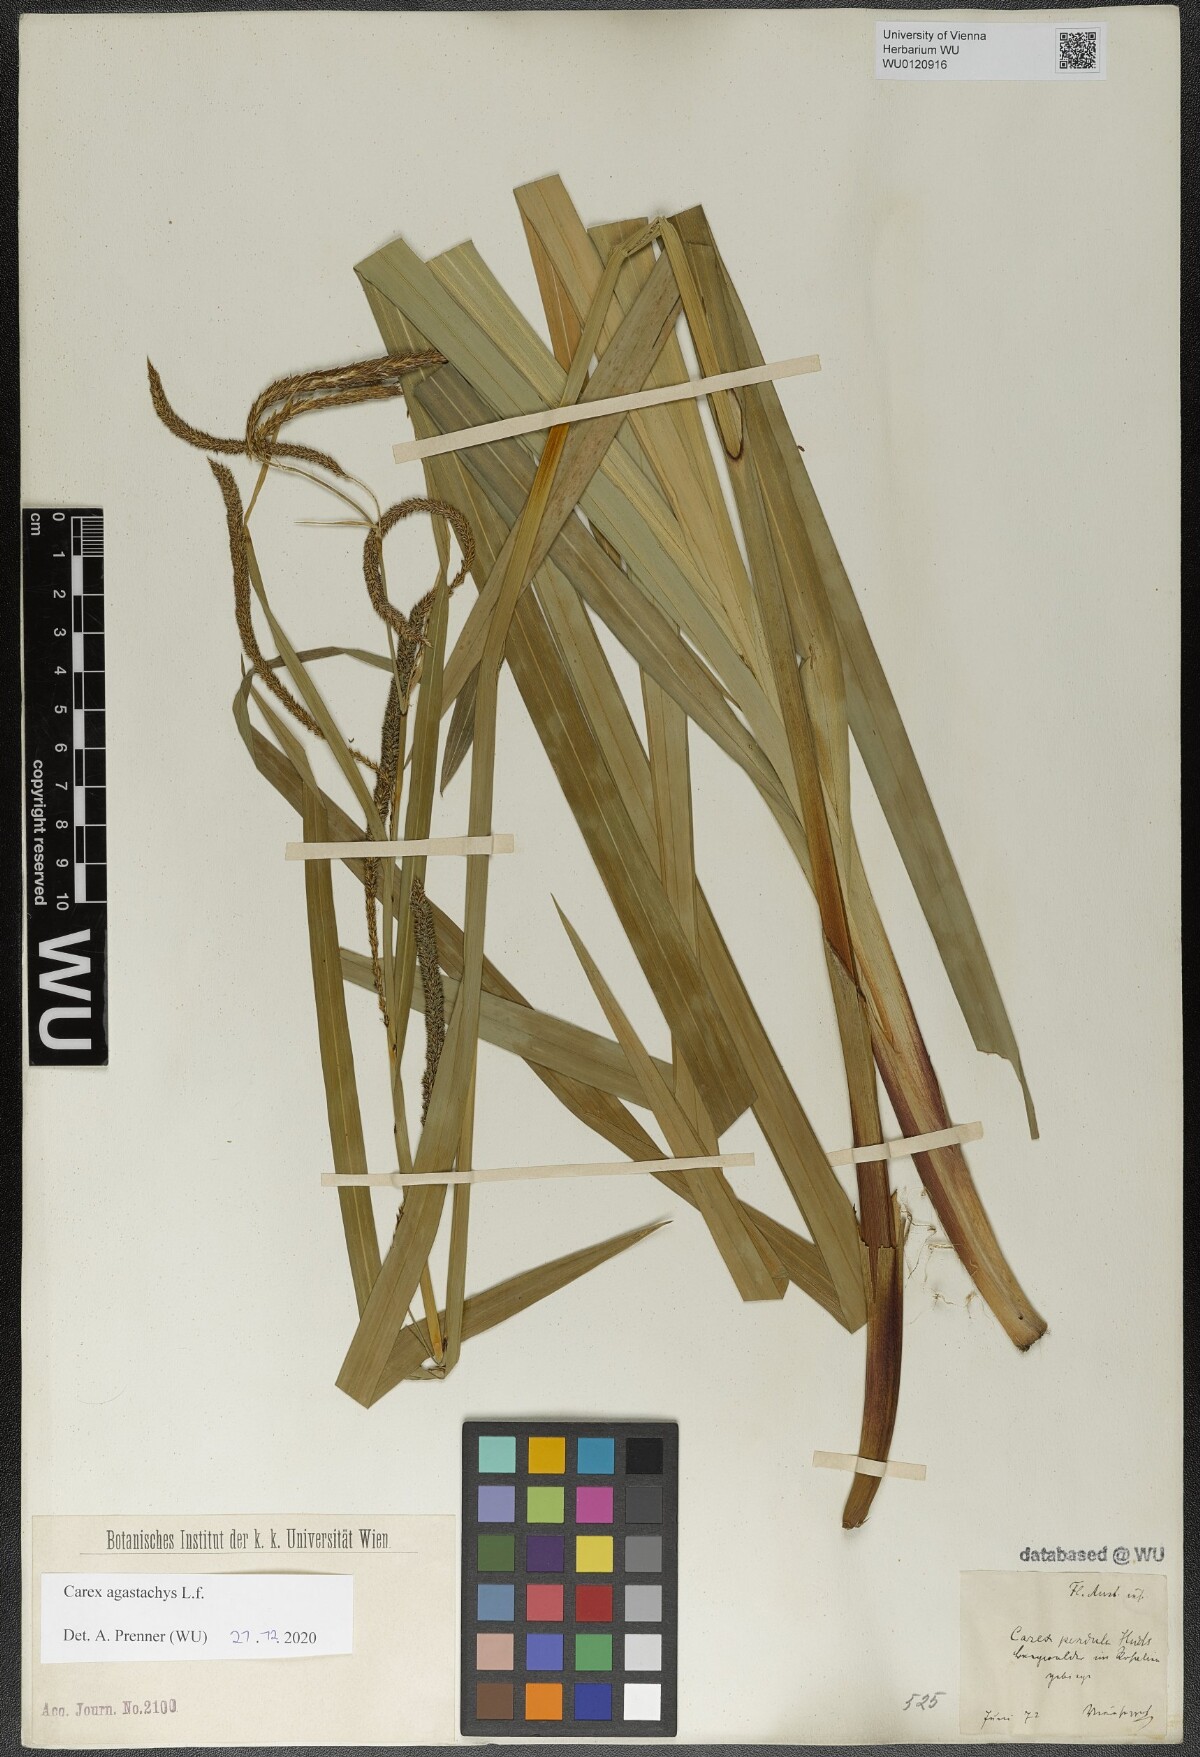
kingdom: Plantae
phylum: Tracheophyta
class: Liliopsida
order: Poales
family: Cyperaceae
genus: Carex
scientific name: Carex agastachys
